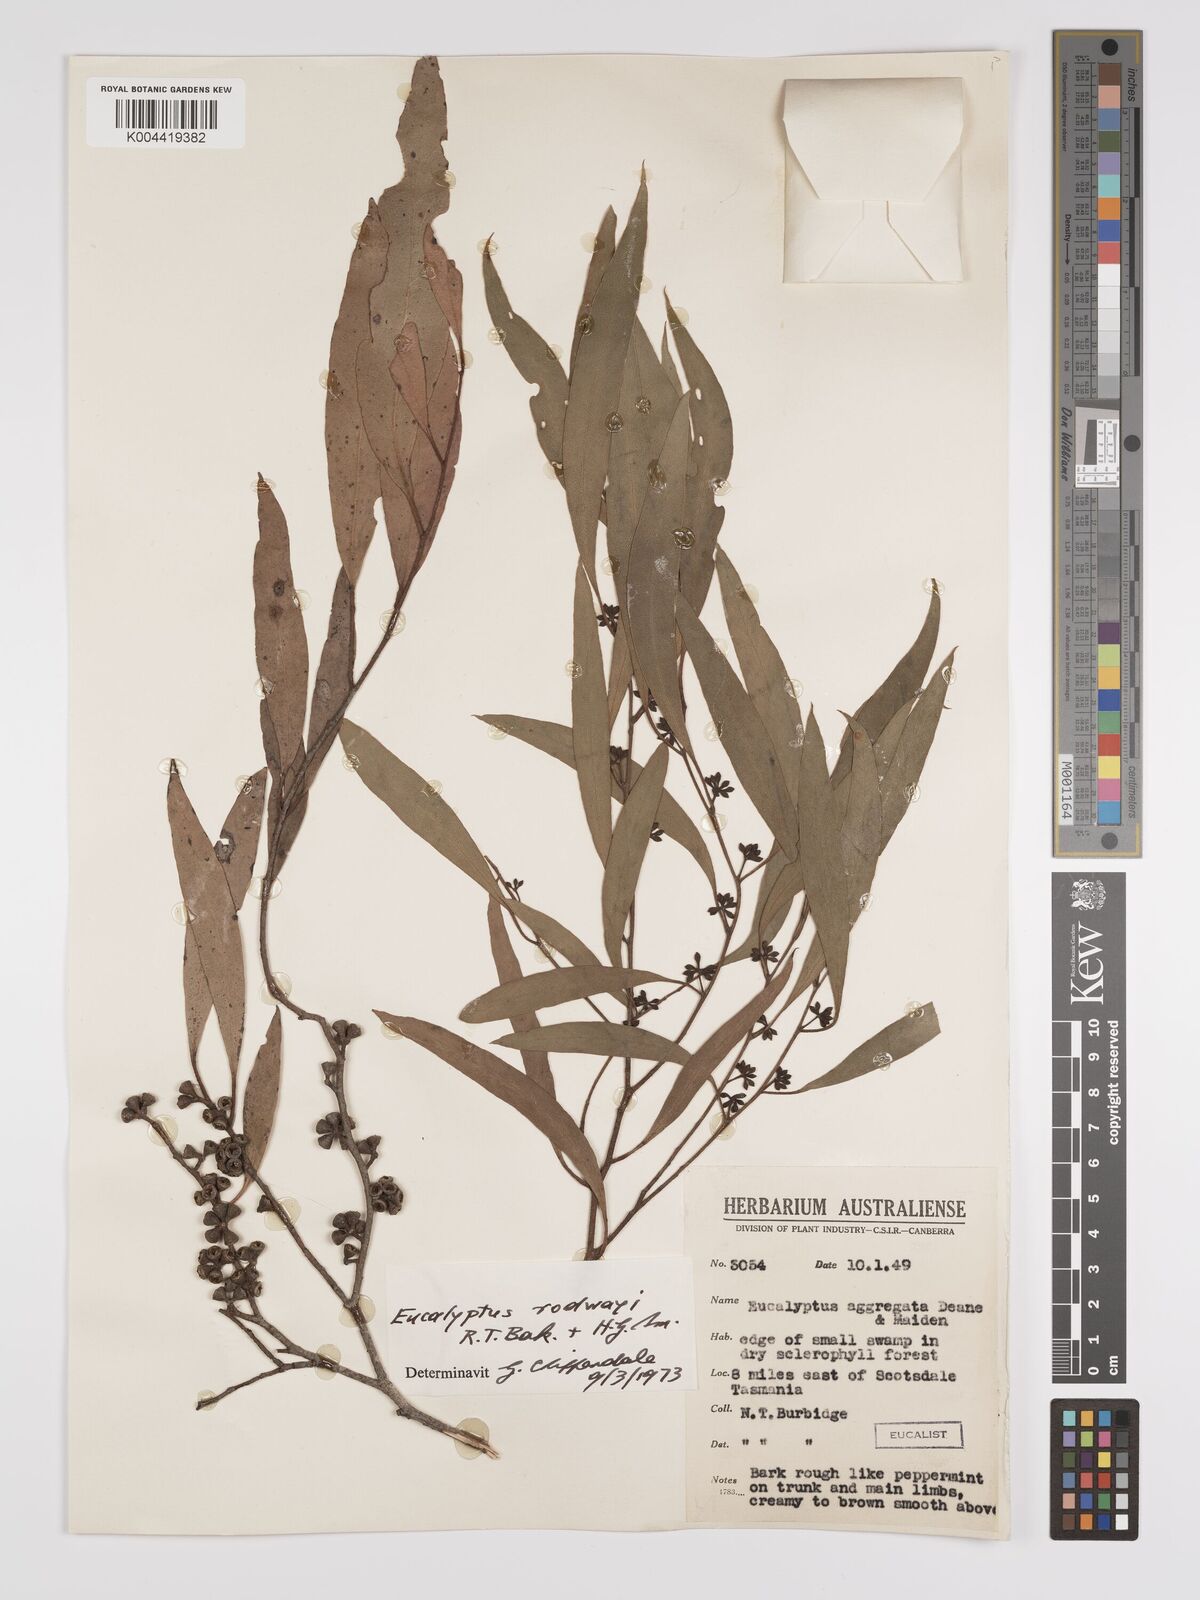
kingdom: Plantae
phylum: Tracheophyta
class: Magnoliopsida
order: Myrtales
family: Myrtaceae
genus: Eucalyptus
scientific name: Eucalyptus rodwayi
